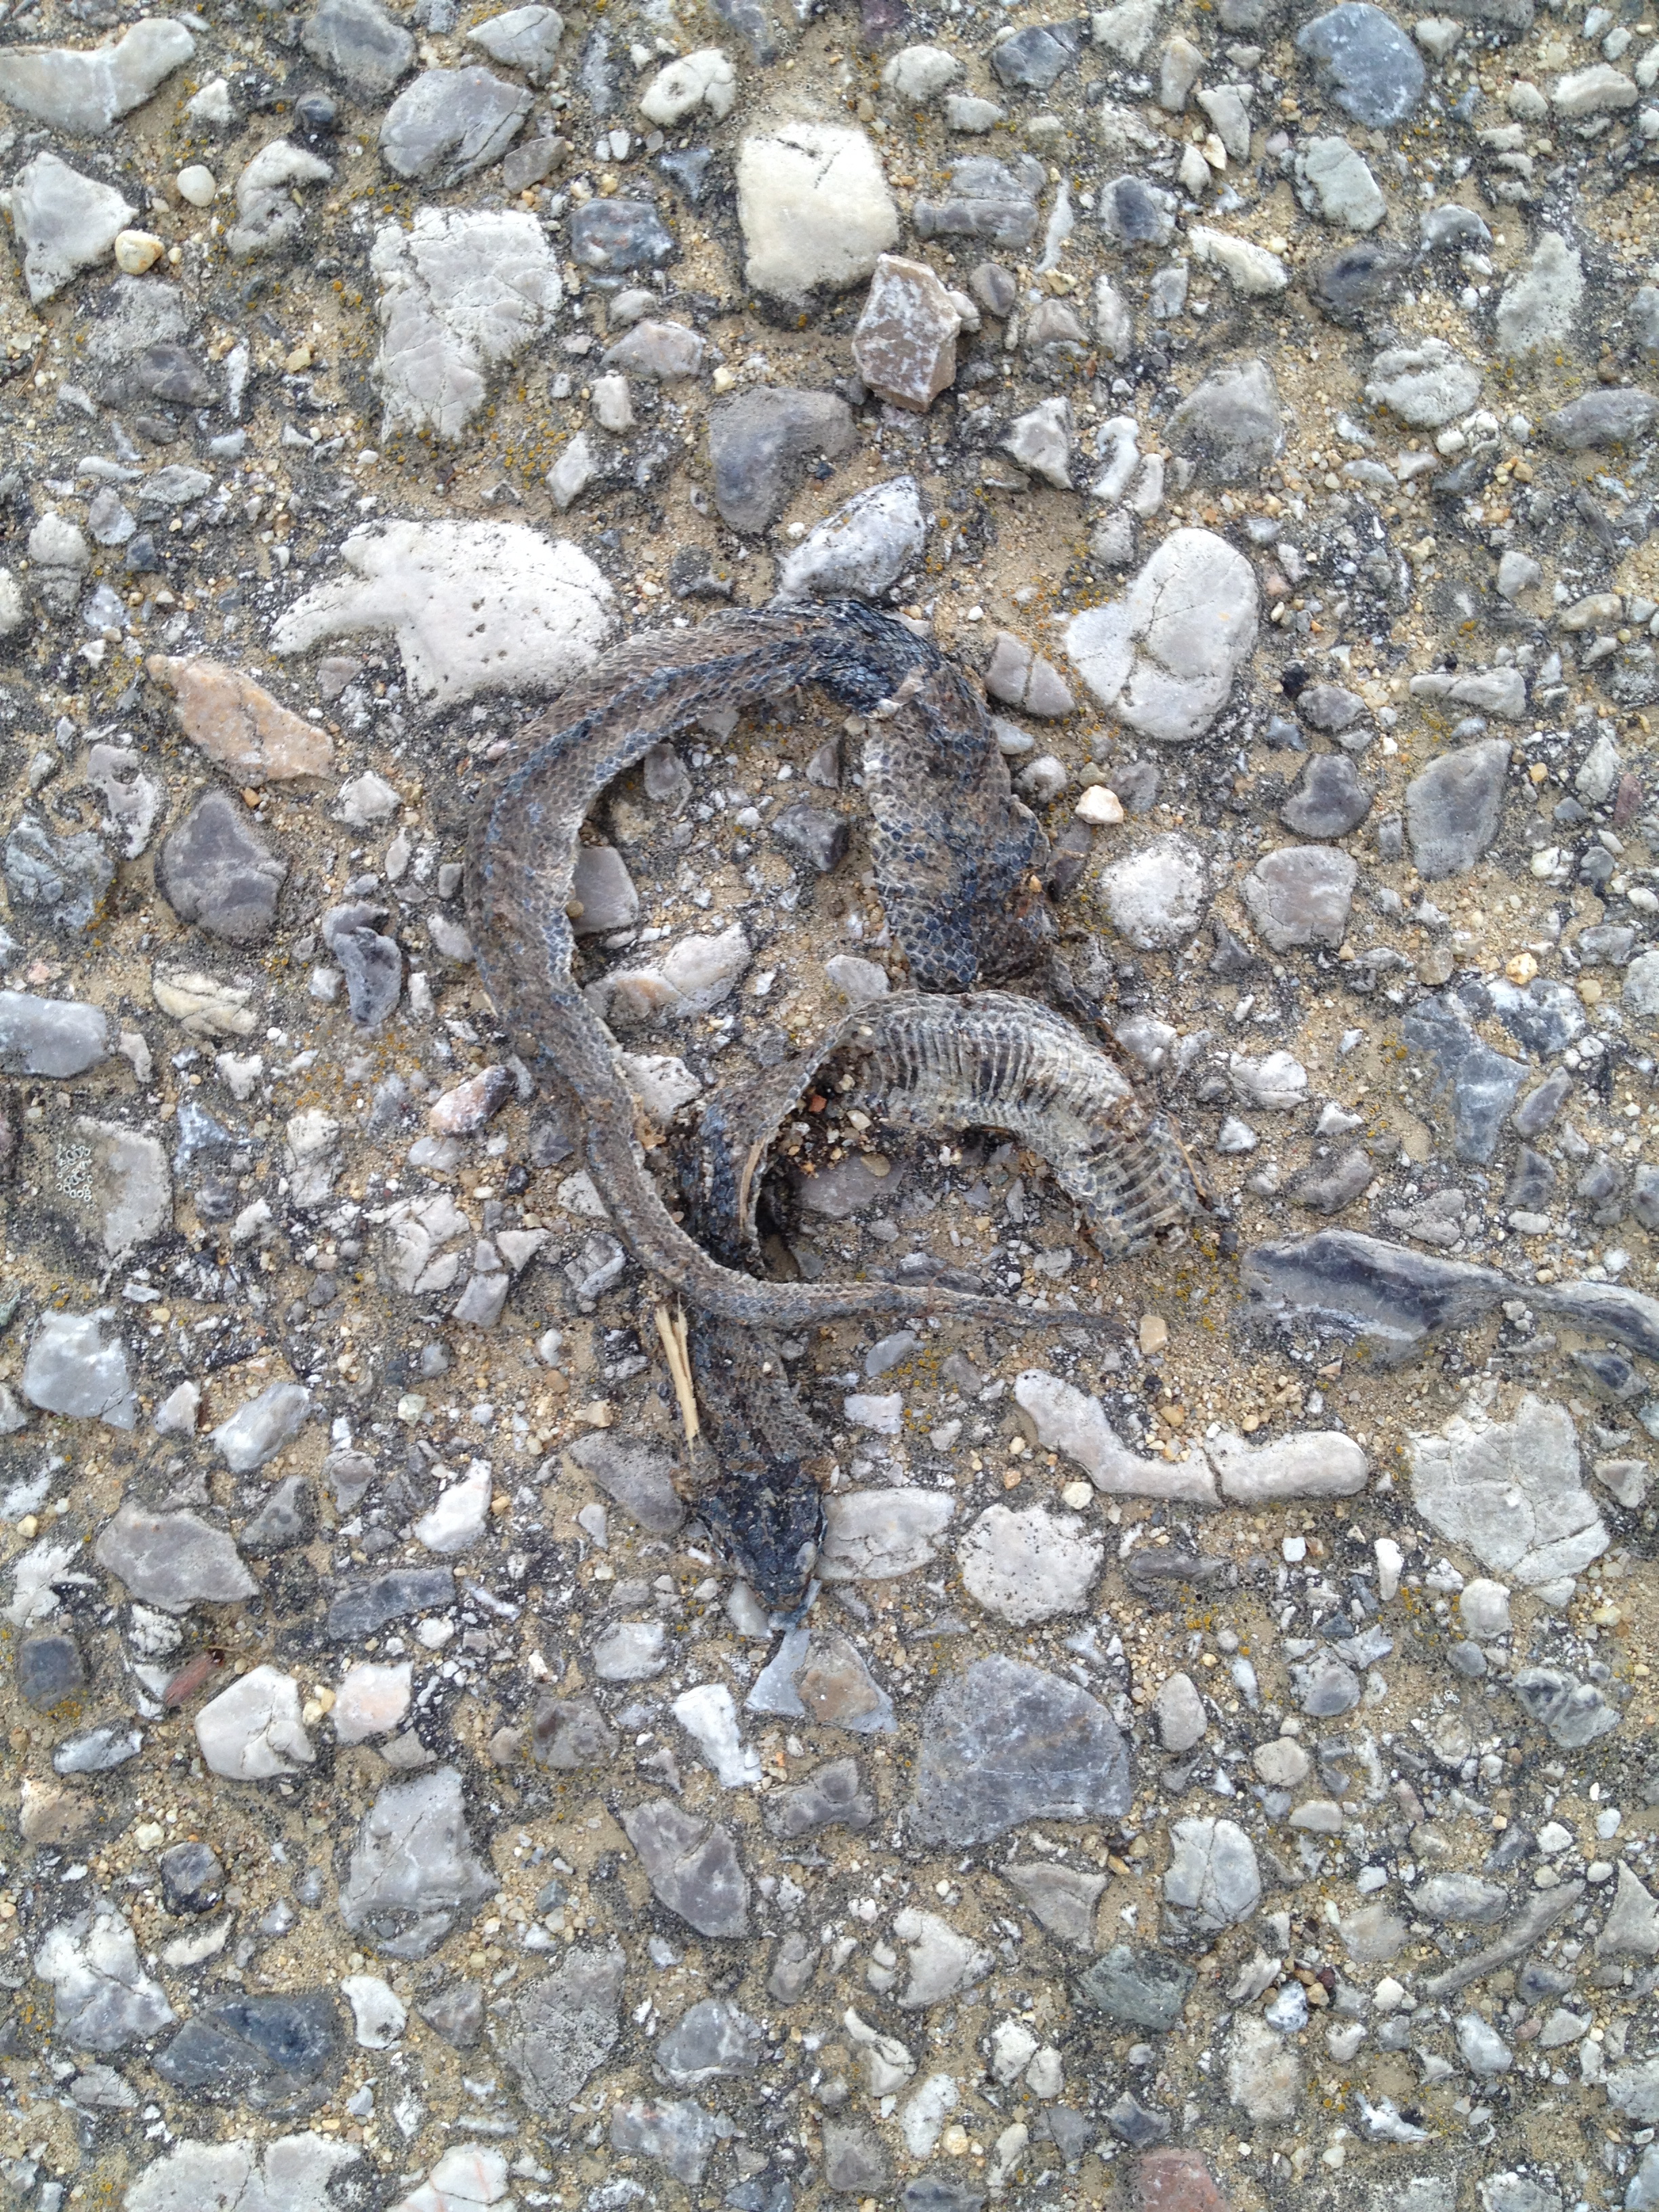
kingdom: Animalia
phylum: Chordata
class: Squamata
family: Colubridae
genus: Coronella
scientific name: Coronella austriaca
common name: Smooth snake
